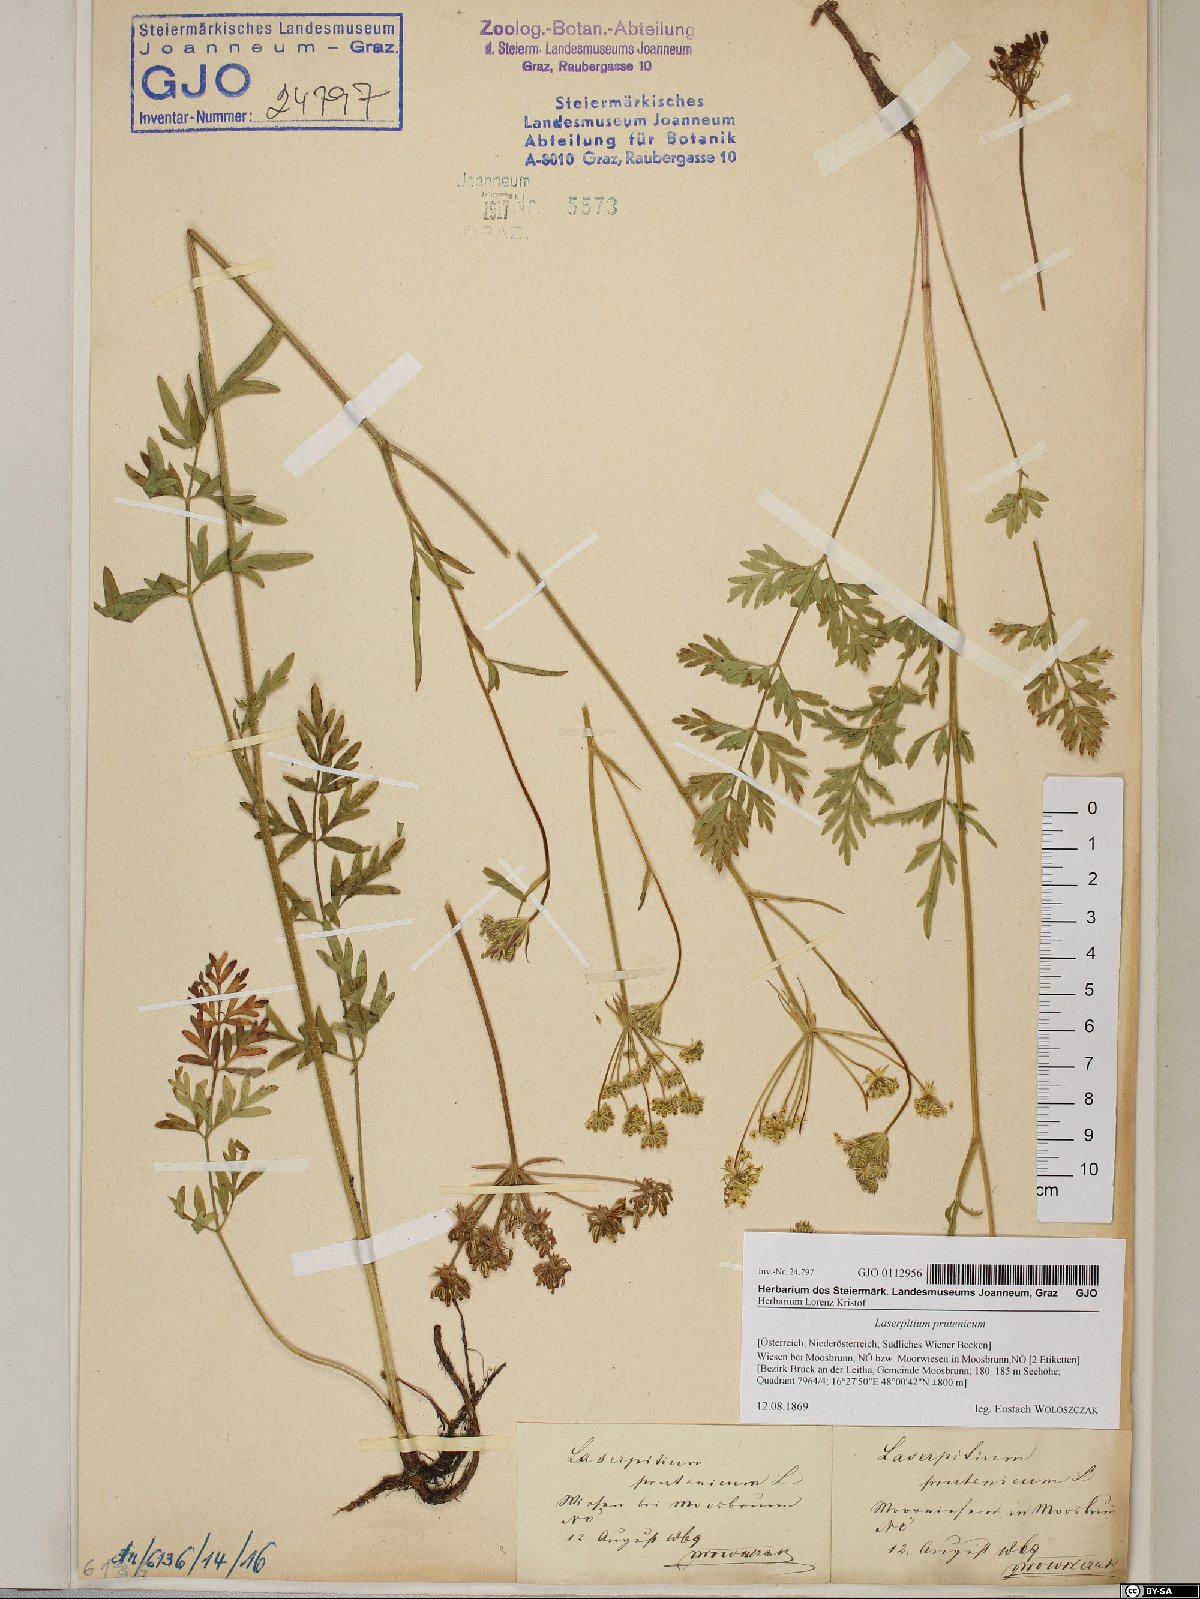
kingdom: Plantae
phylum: Tracheophyta
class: Magnoliopsida
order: Apiales
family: Apiaceae
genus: Silphiodaucus
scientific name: Silphiodaucus prutenicus
